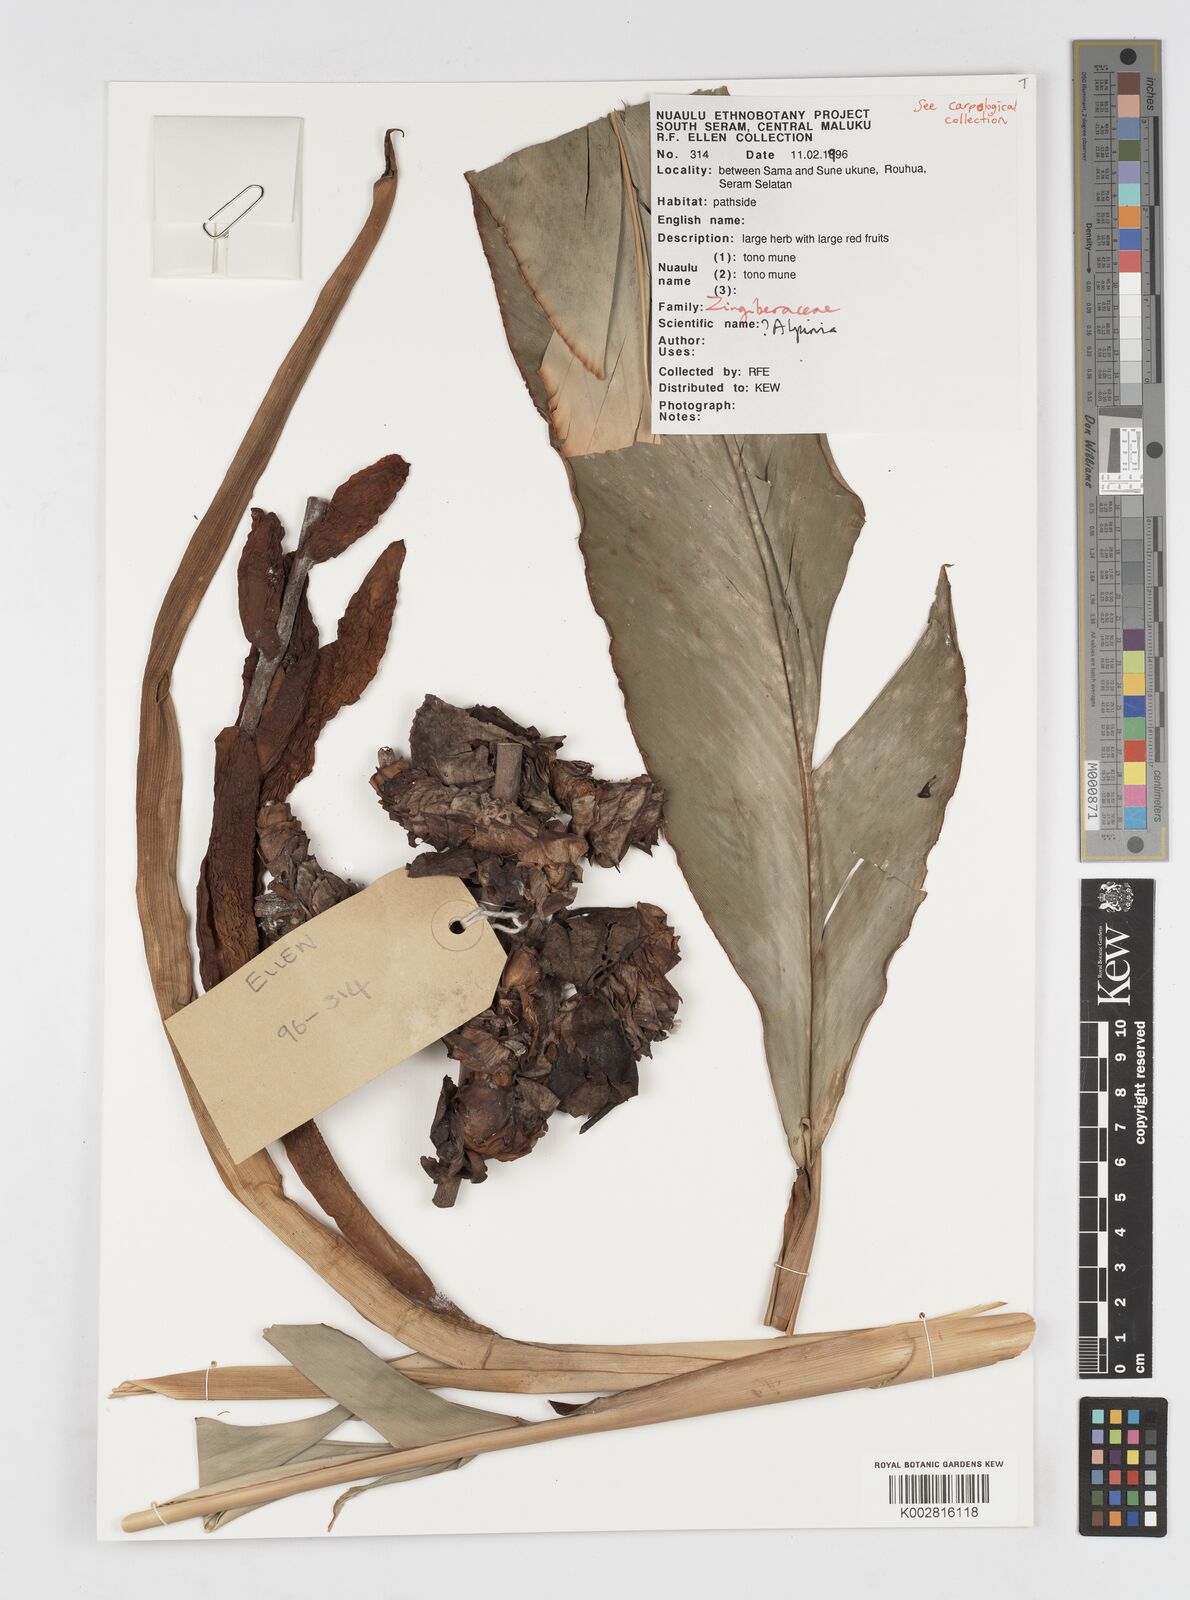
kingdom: Plantae
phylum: Tracheophyta
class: Liliopsida
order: Zingiberales
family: Zingiberaceae
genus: Alpinia
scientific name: Alpinia
